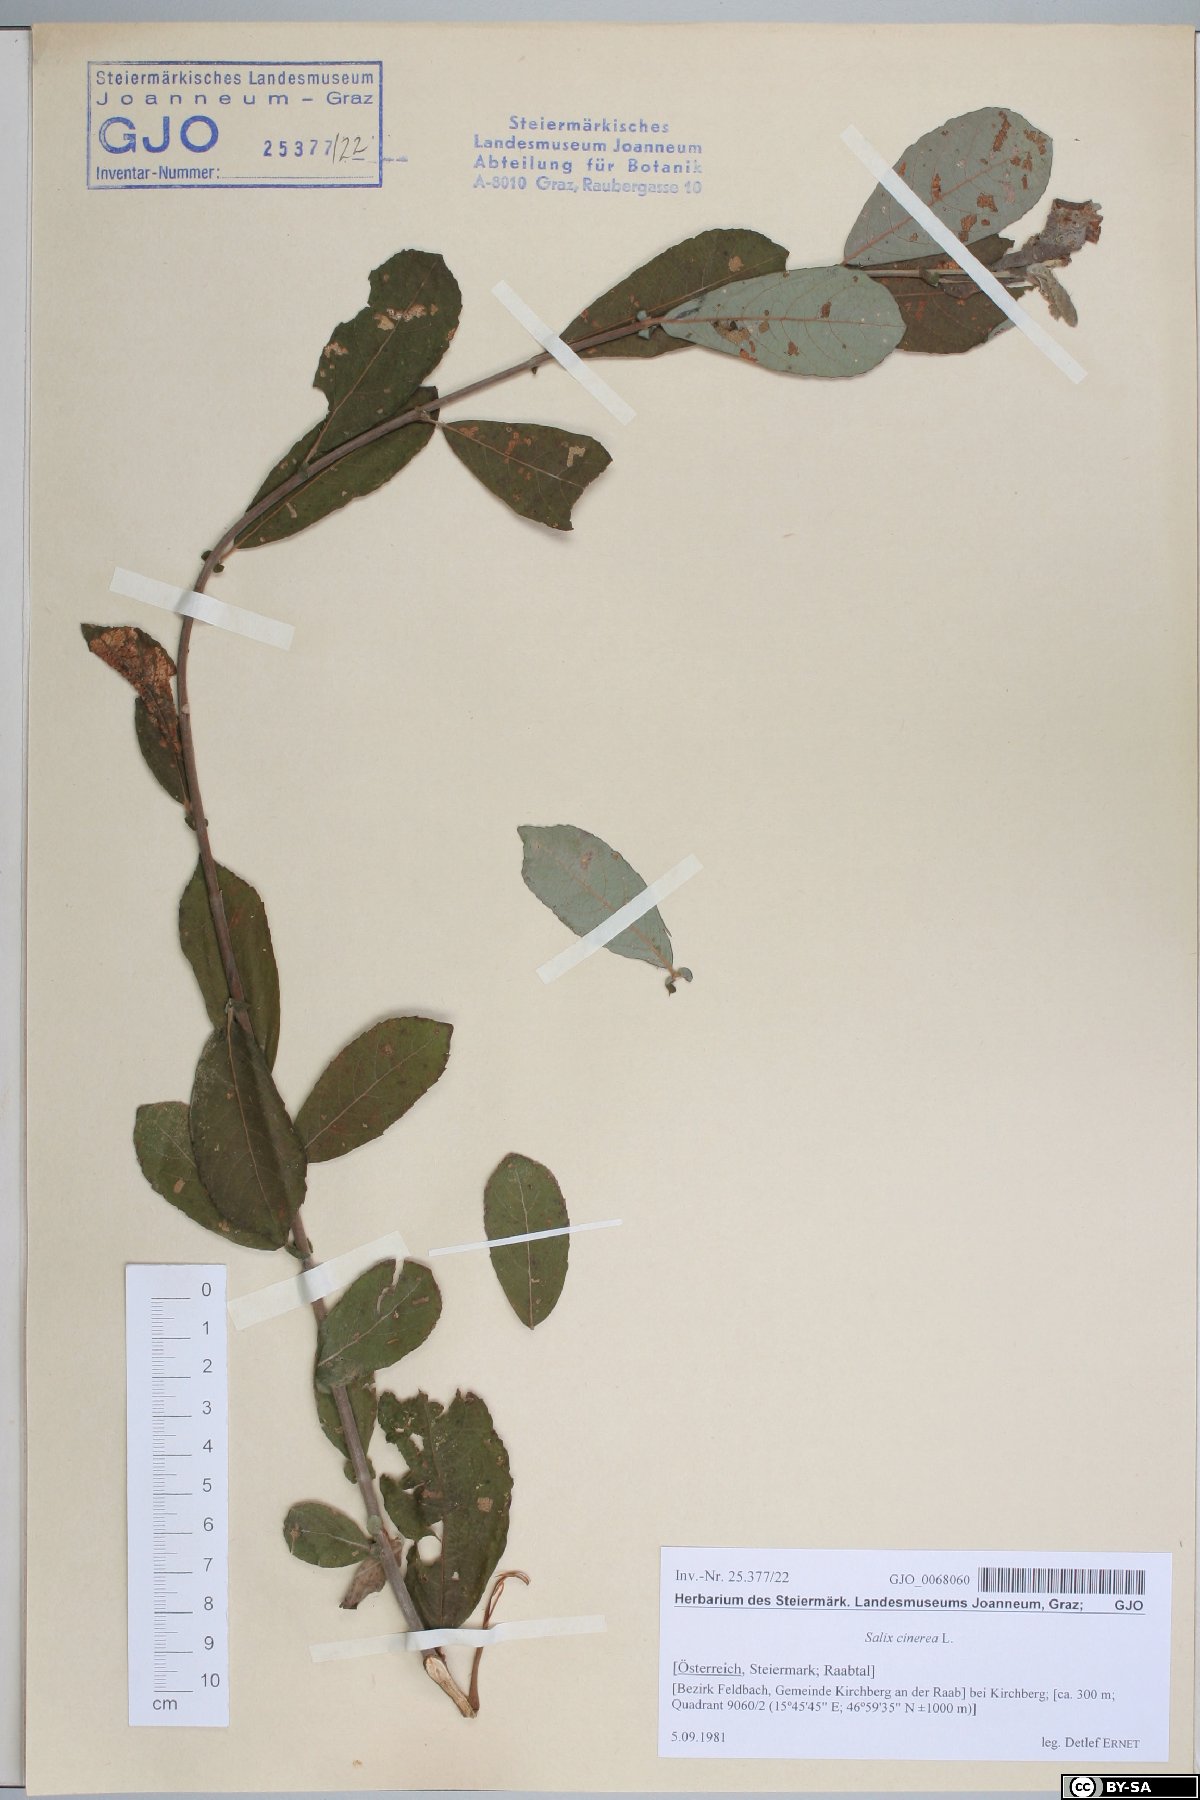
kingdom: Plantae
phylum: Tracheophyta
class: Magnoliopsida
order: Malpighiales
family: Salicaceae
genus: Salix
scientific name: Salix cinerea
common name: Common sallow
